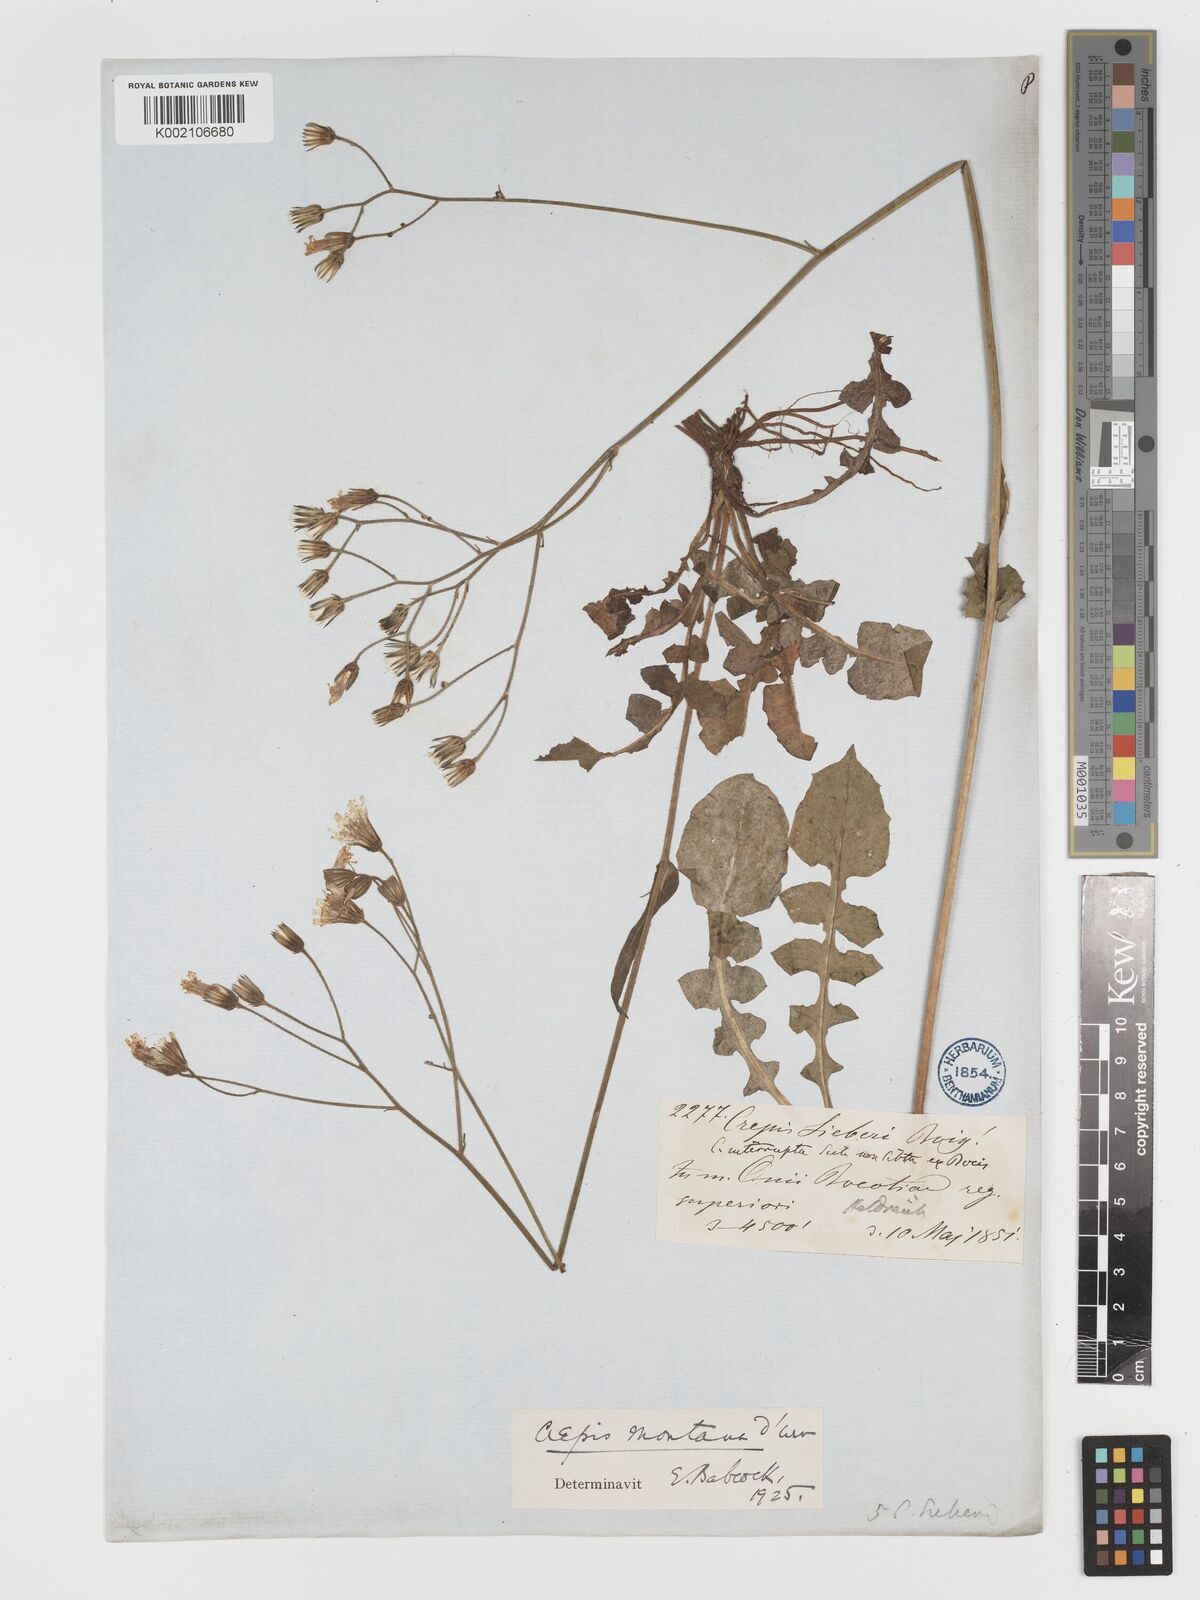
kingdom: Plantae
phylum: Tracheophyta
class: Magnoliopsida
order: Asterales
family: Asteraceae
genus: Crepis
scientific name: Crepis
